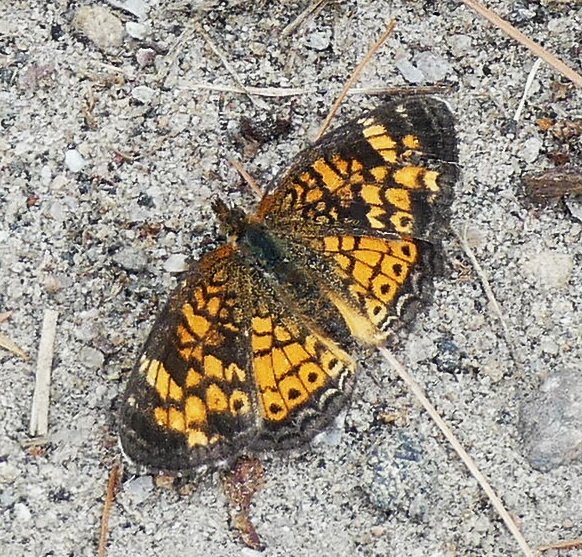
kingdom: Animalia
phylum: Arthropoda
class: Insecta
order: Lepidoptera
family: Nymphalidae
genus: Phyciodes
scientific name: Phyciodes tharos
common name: Pearl Crescent
